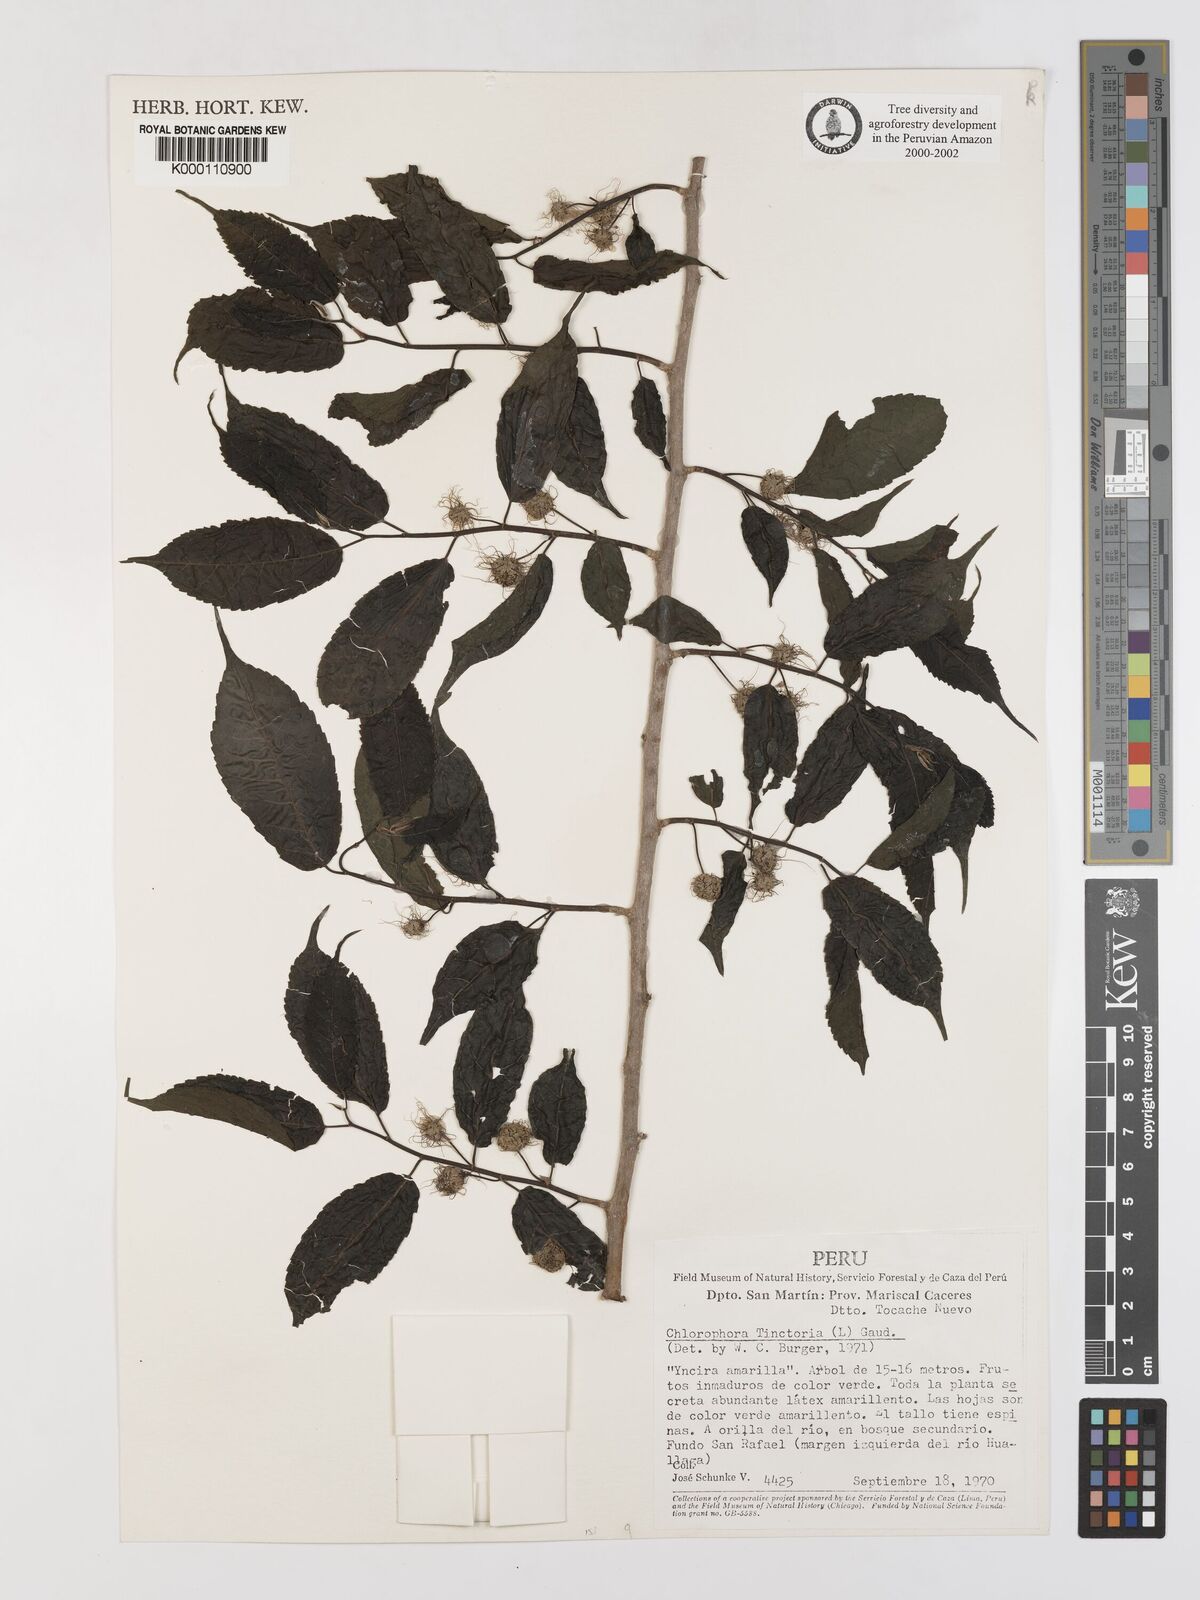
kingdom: Plantae
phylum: Tracheophyta
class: Magnoliopsida
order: Rosales
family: Moraceae
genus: Maclura
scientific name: Maclura tinctoria
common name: Old fustic
